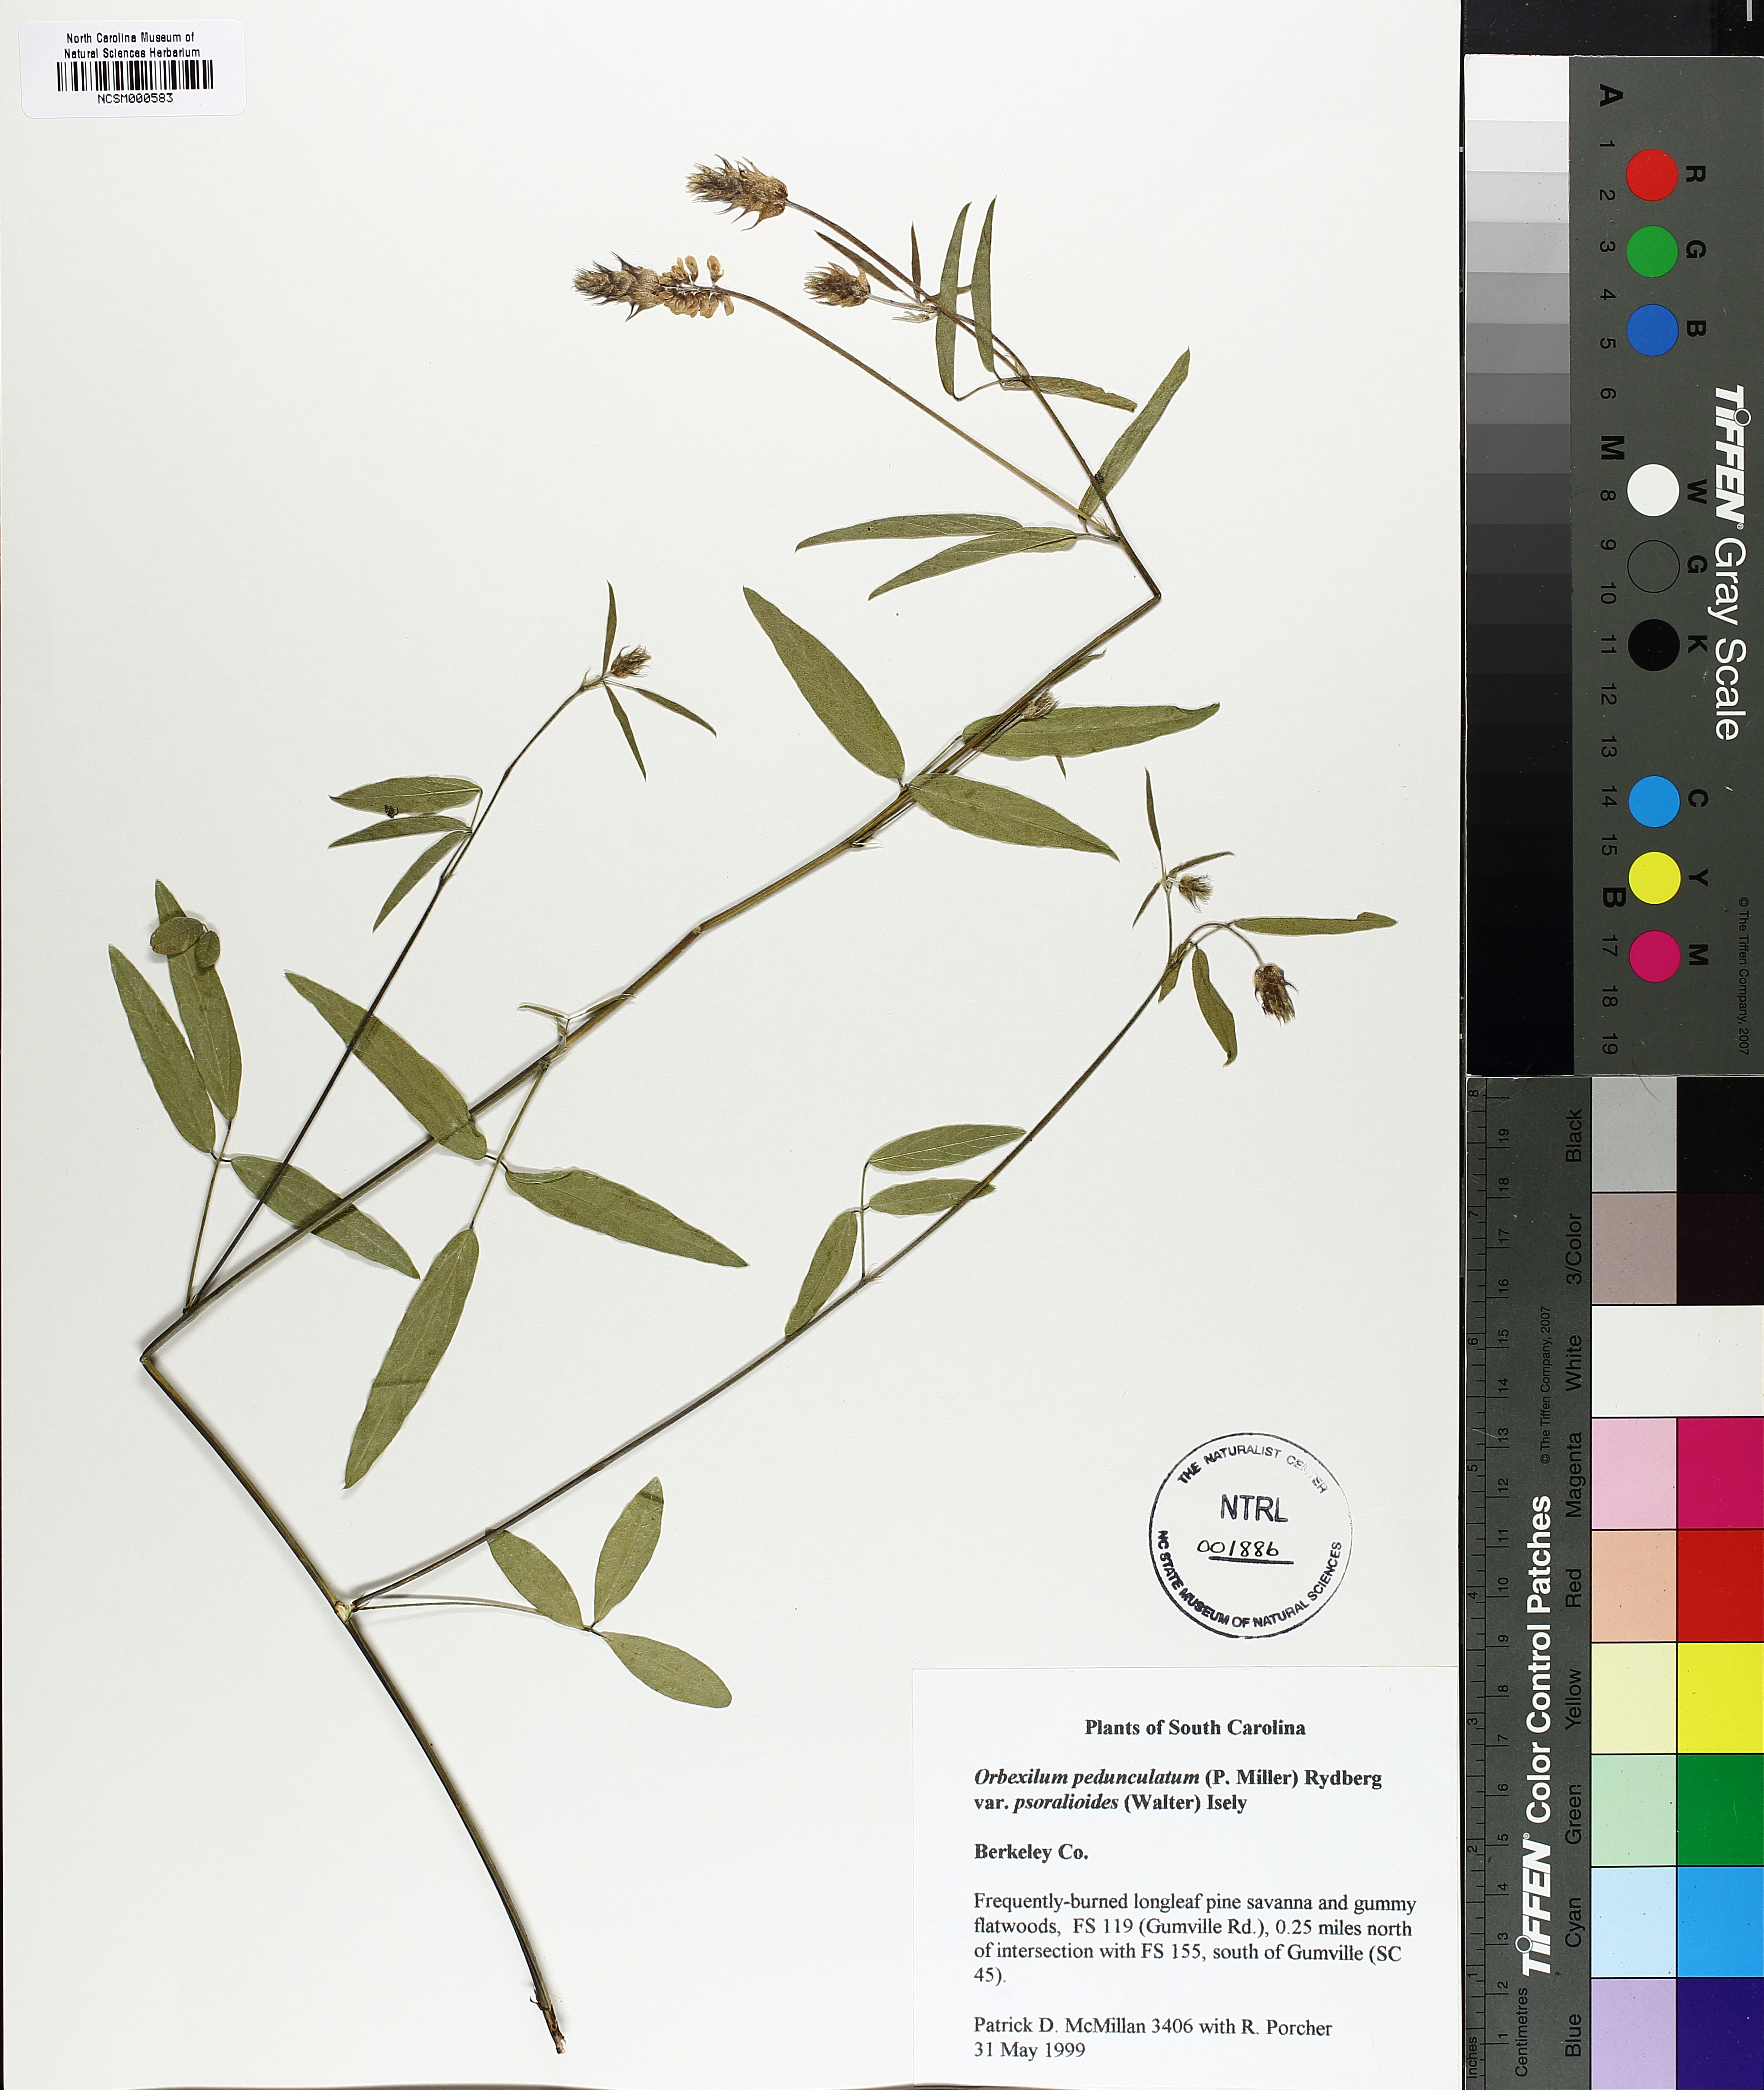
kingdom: Plantae
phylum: Tracheophyta
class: Magnoliopsida
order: Fabales
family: Fabaceae
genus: Orbexilum
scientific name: Orbexilum psoralioides
